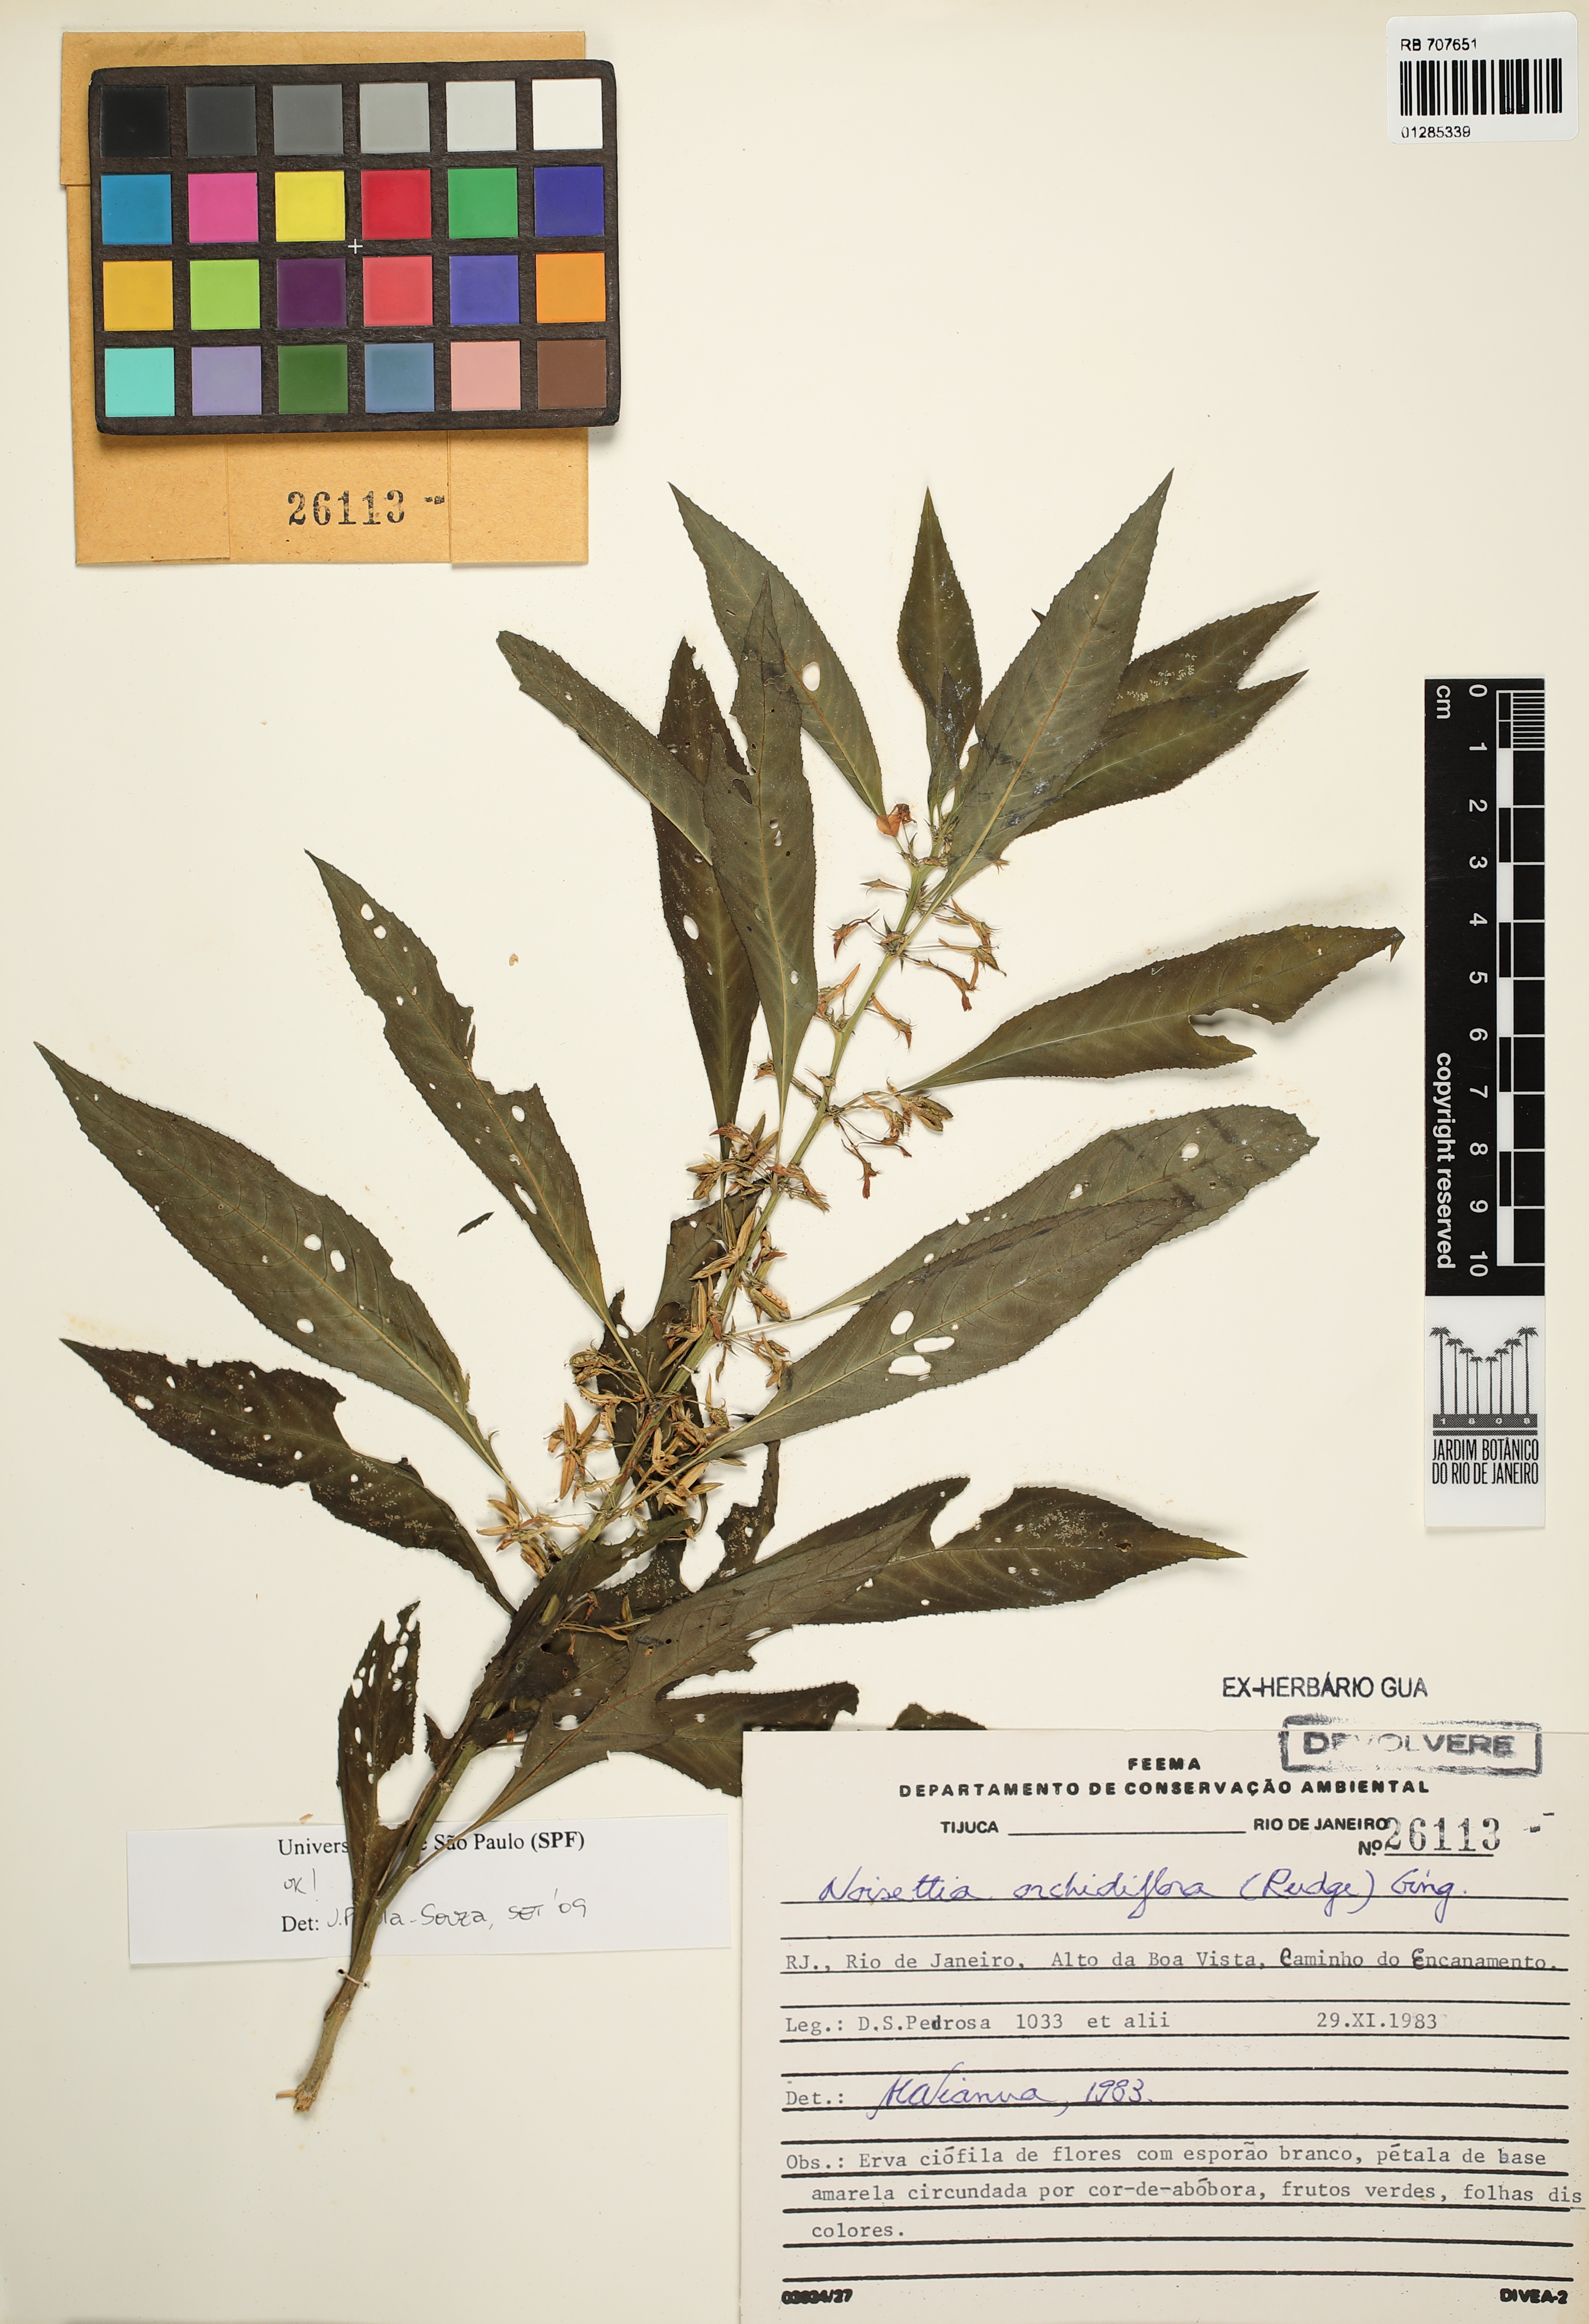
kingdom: Plantae
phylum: Tracheophyta
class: Magnoliopsida
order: Malpighiales
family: Violaceae
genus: Noisettia
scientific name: Noisettia orchidiflora
